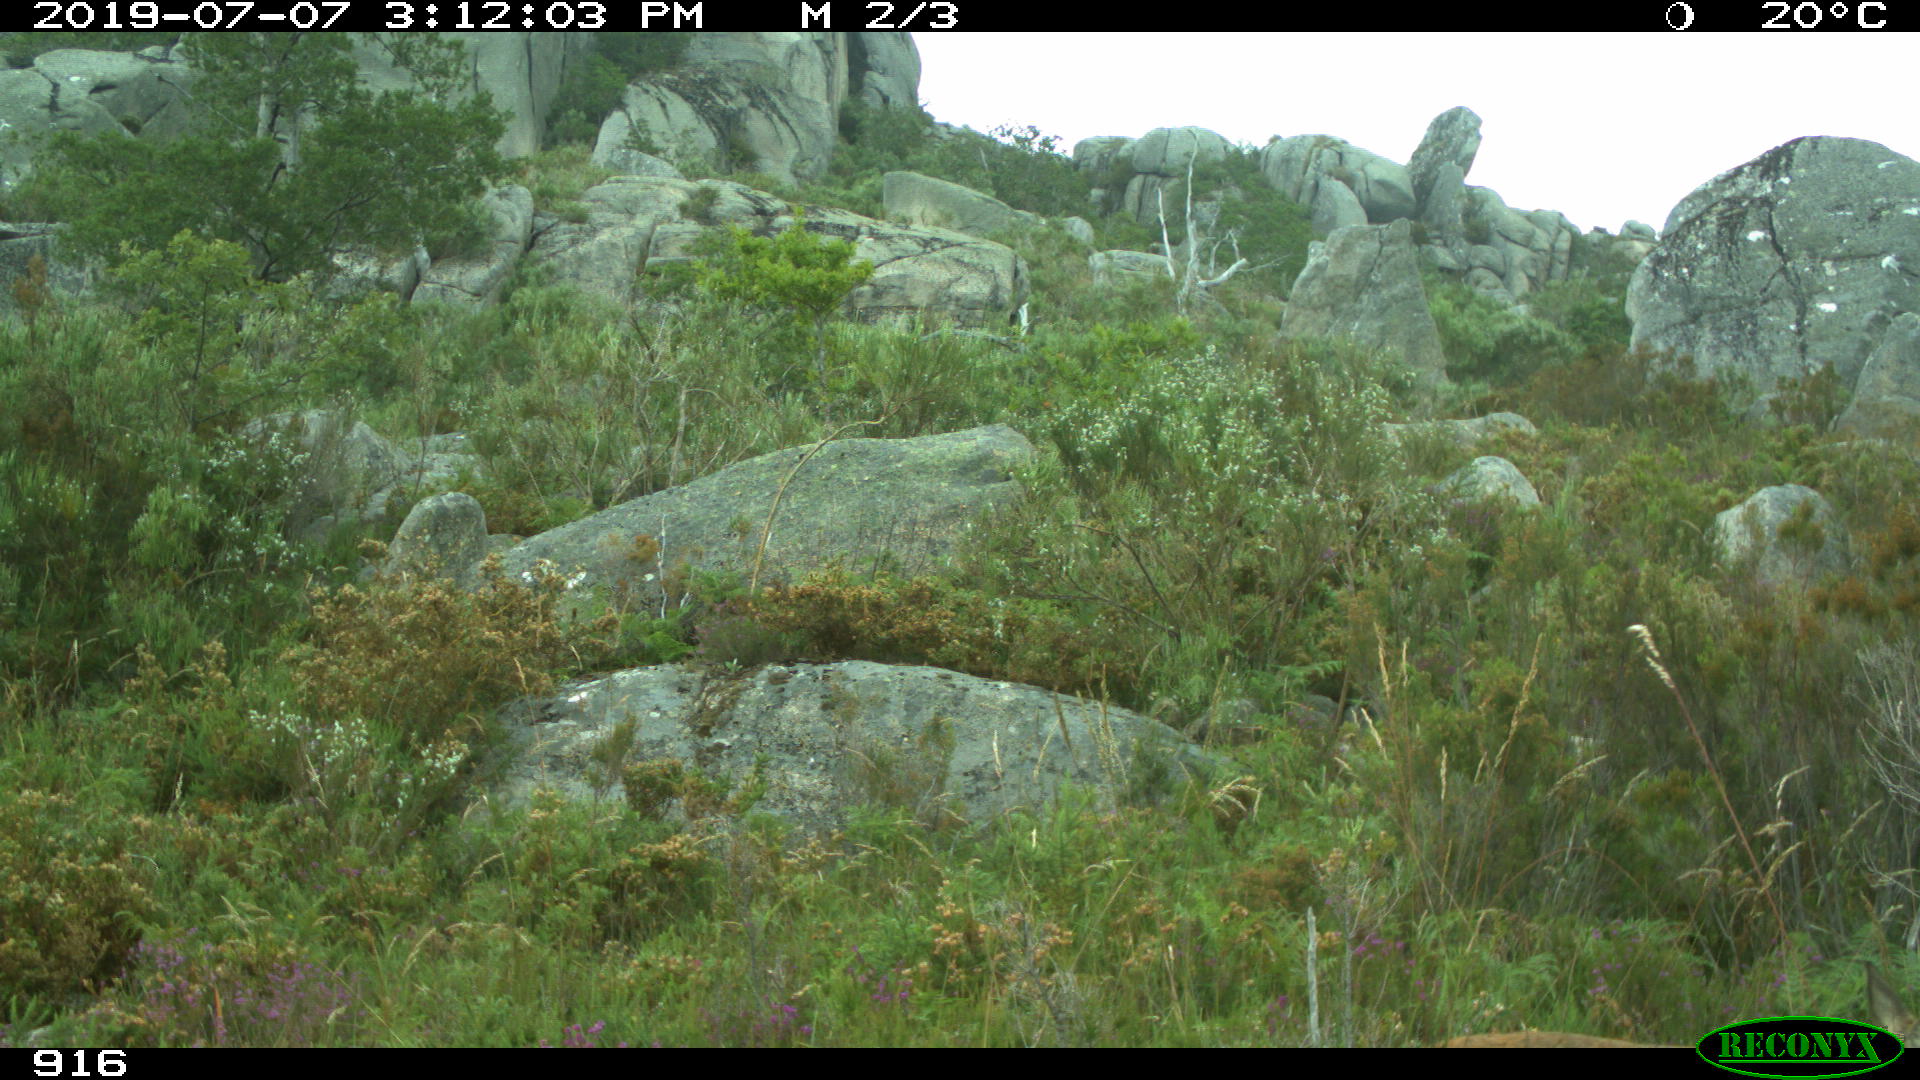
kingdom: Animalia
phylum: Chordata
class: Mammalia
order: Artiodactyla
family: Cervidae
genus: Capreolus
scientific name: Capreolus capreolus
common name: Western roe deer
